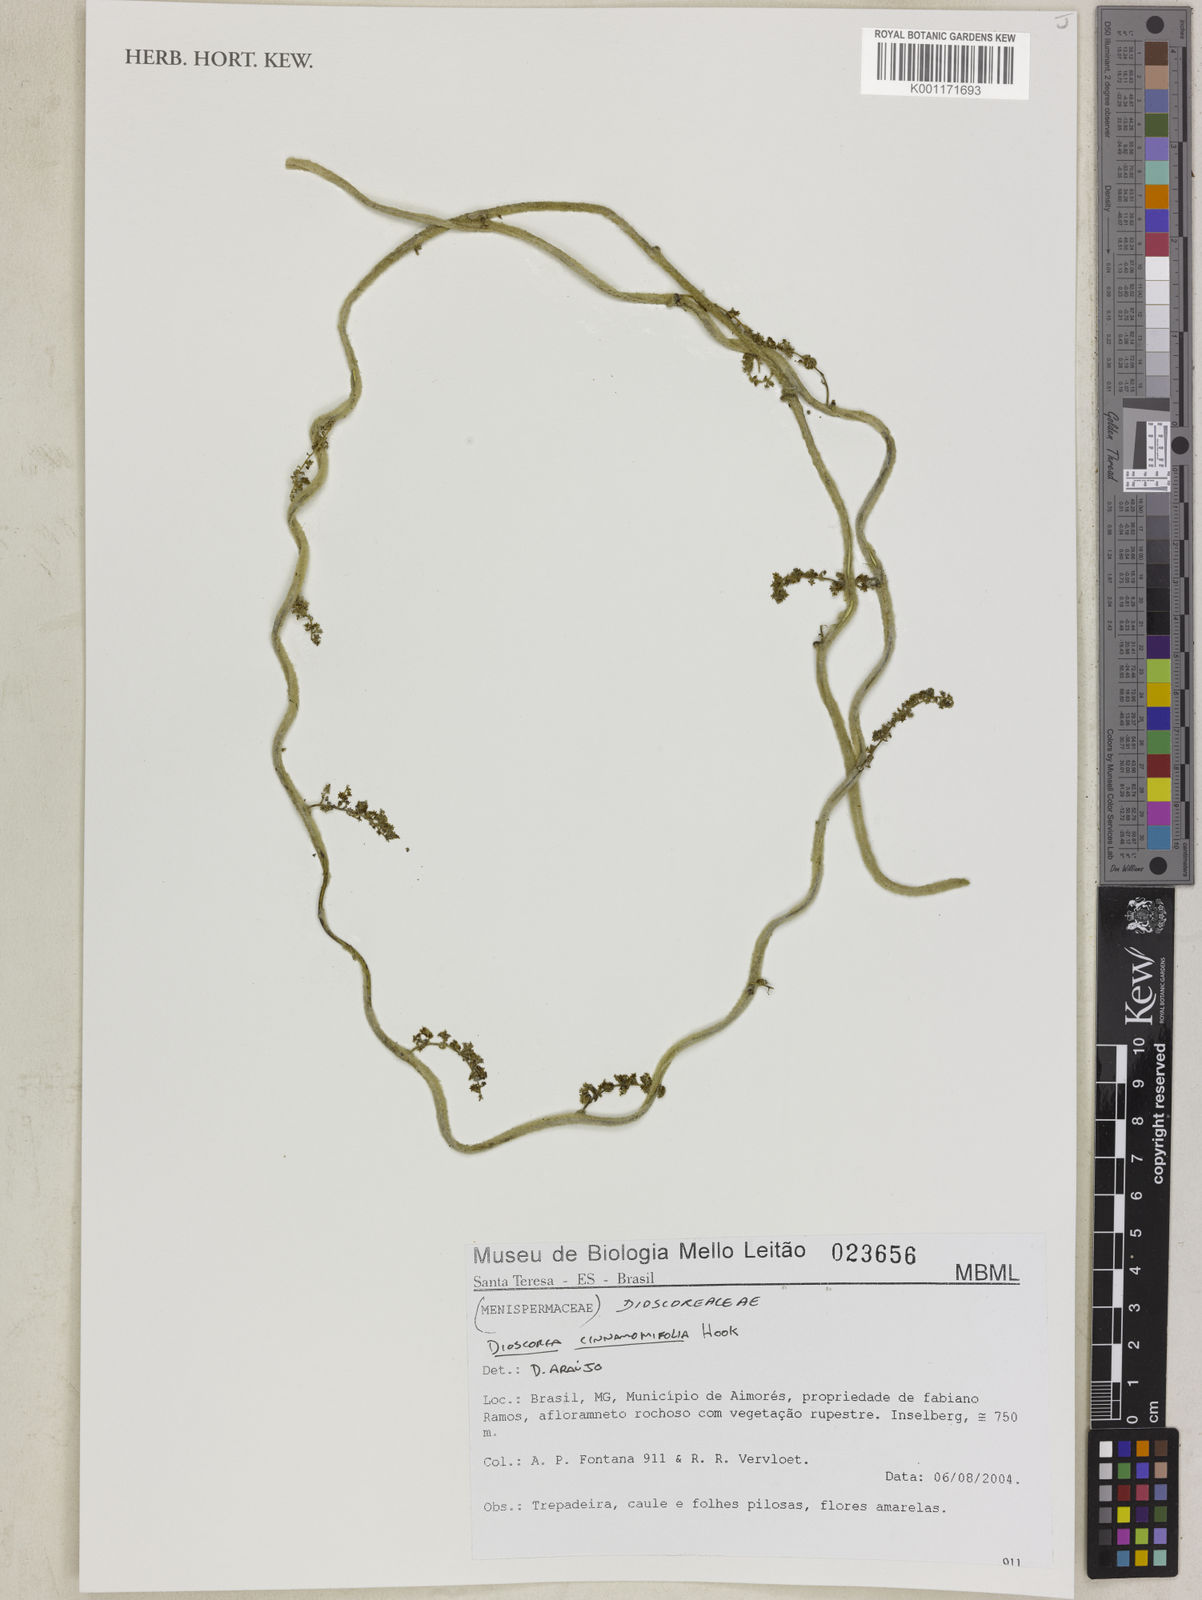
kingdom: Plantae
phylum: Tracheophyta
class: Liliopsida
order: Dioscoreales
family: Dioscoreaceae
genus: Dioscorea
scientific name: Dioscorea cinnamomifolia
